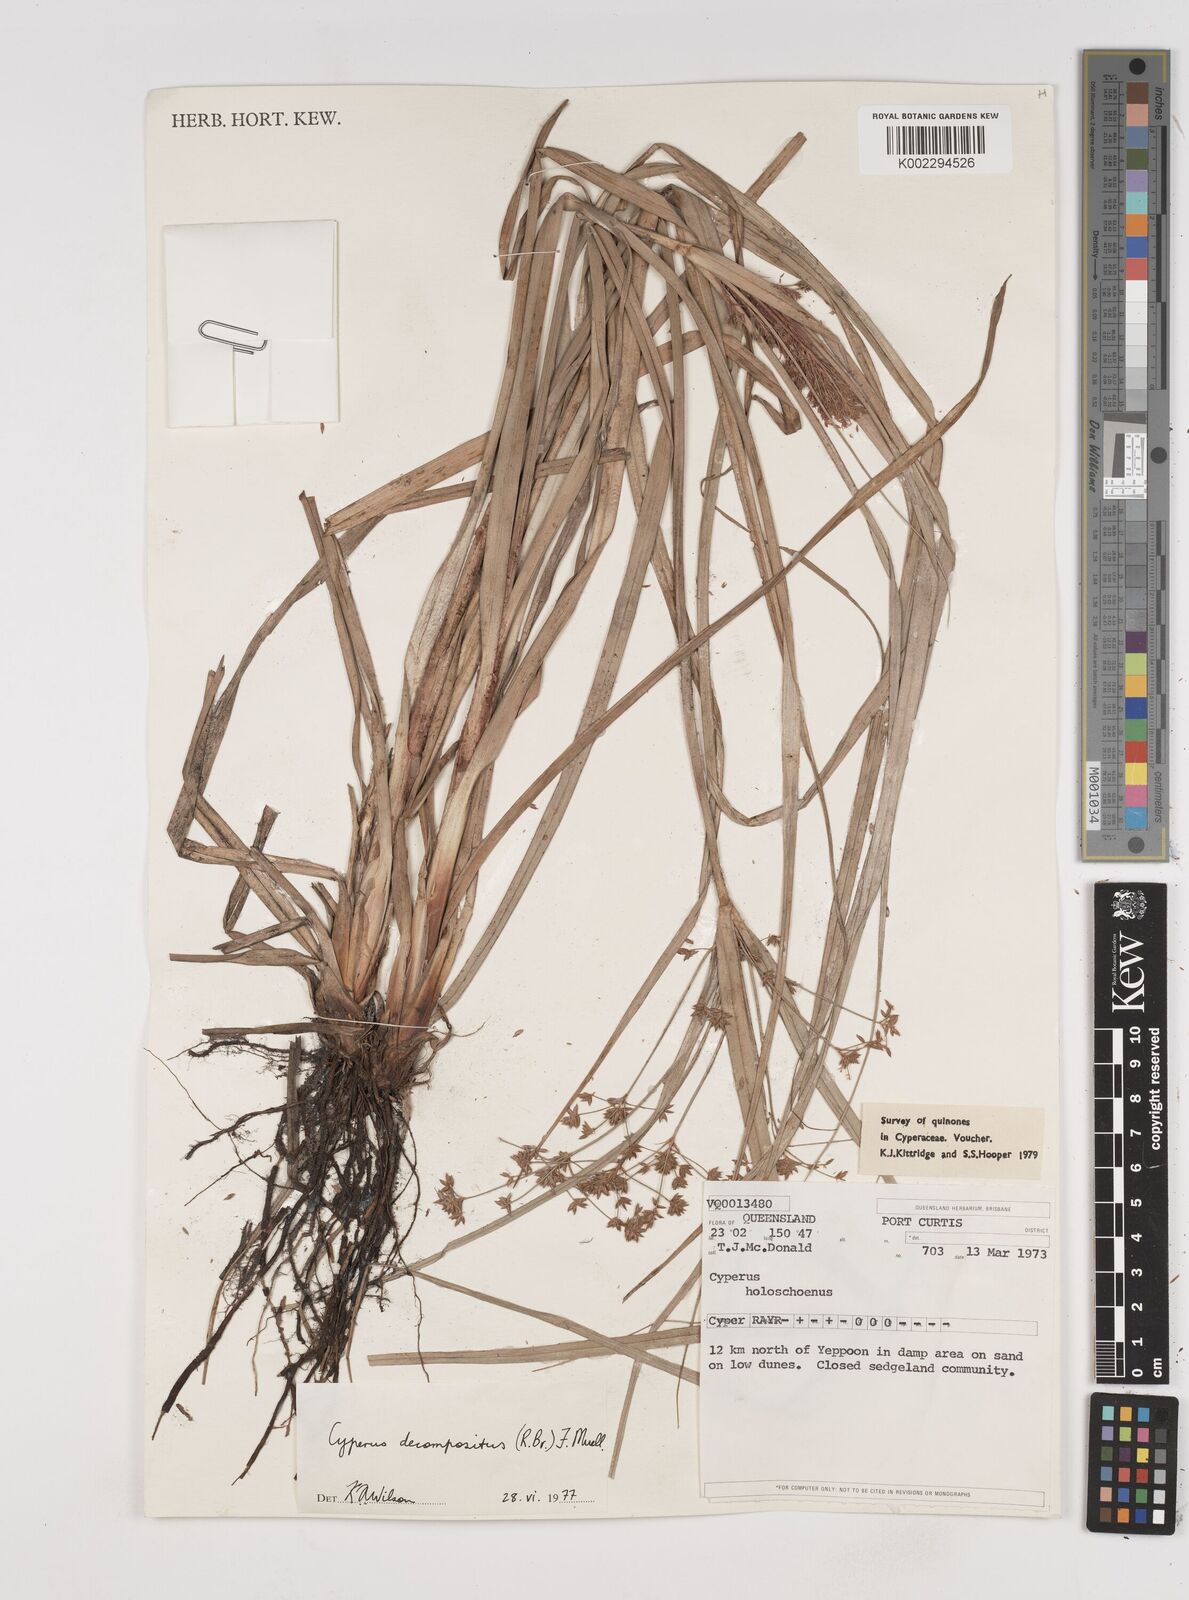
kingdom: Plantae
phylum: Tracheophyta
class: Liliopsida
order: Poales
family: Cyperaceae
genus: Cyperus
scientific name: Cyperus decompositus
